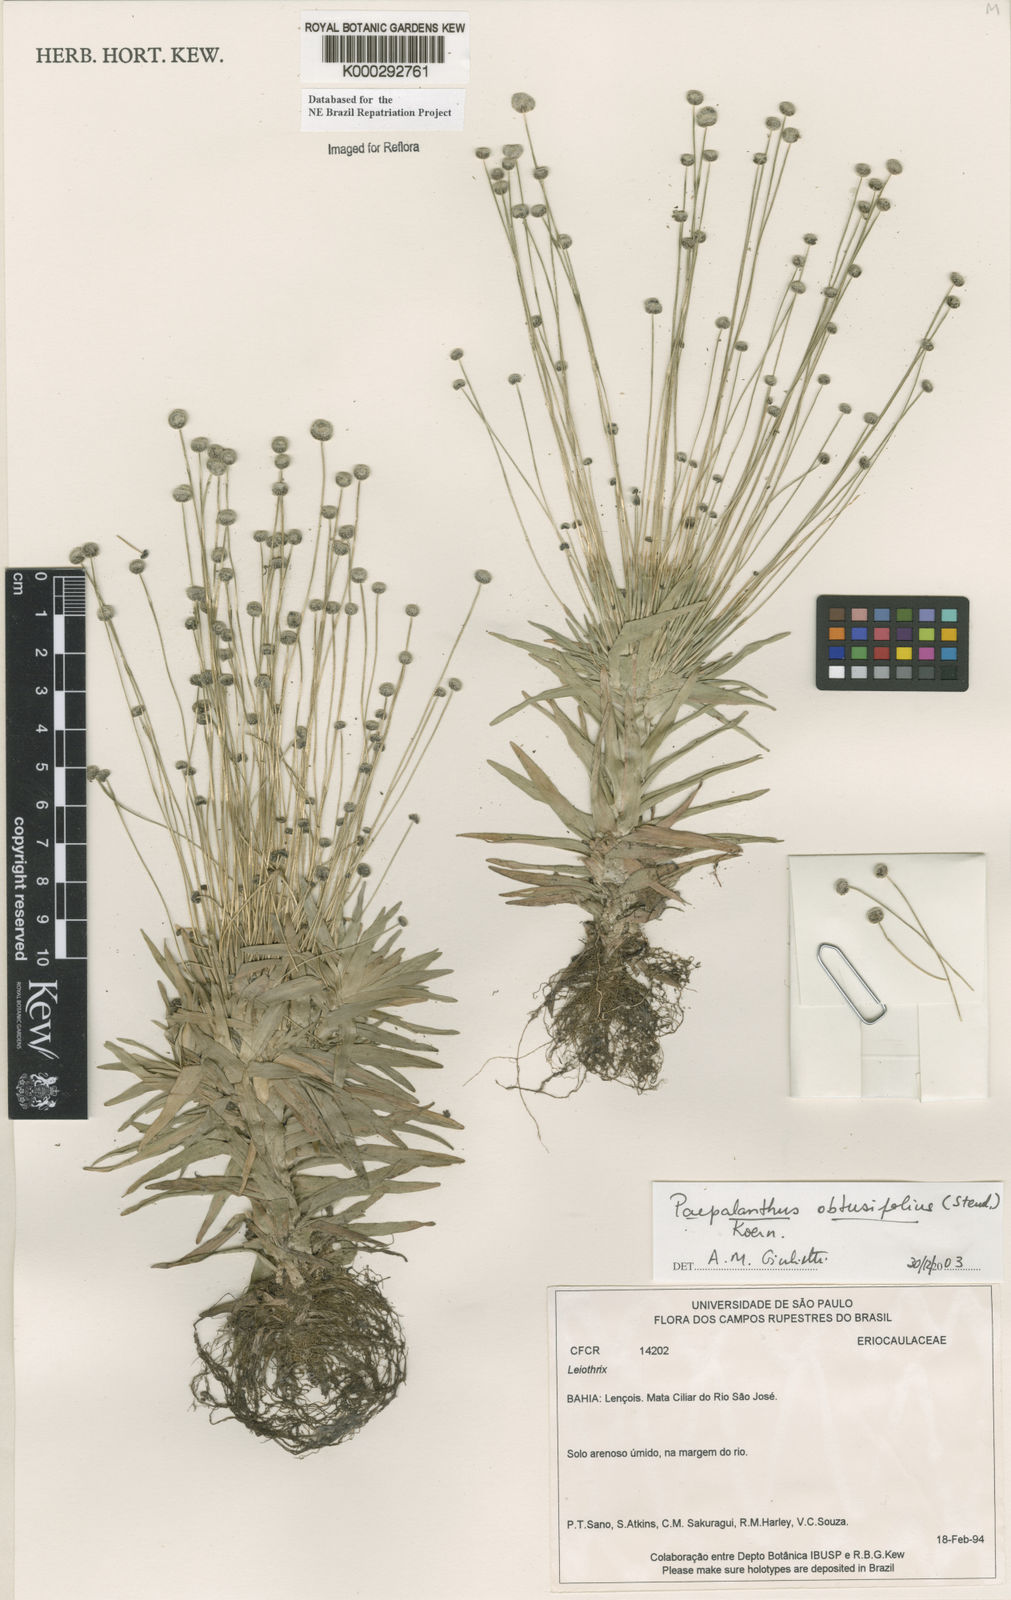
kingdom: Plantae
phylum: Tracheophyta
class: Liliopsida
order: Poales
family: Eriocaulaceae
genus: Paepalanthus
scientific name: Paepalanthus
